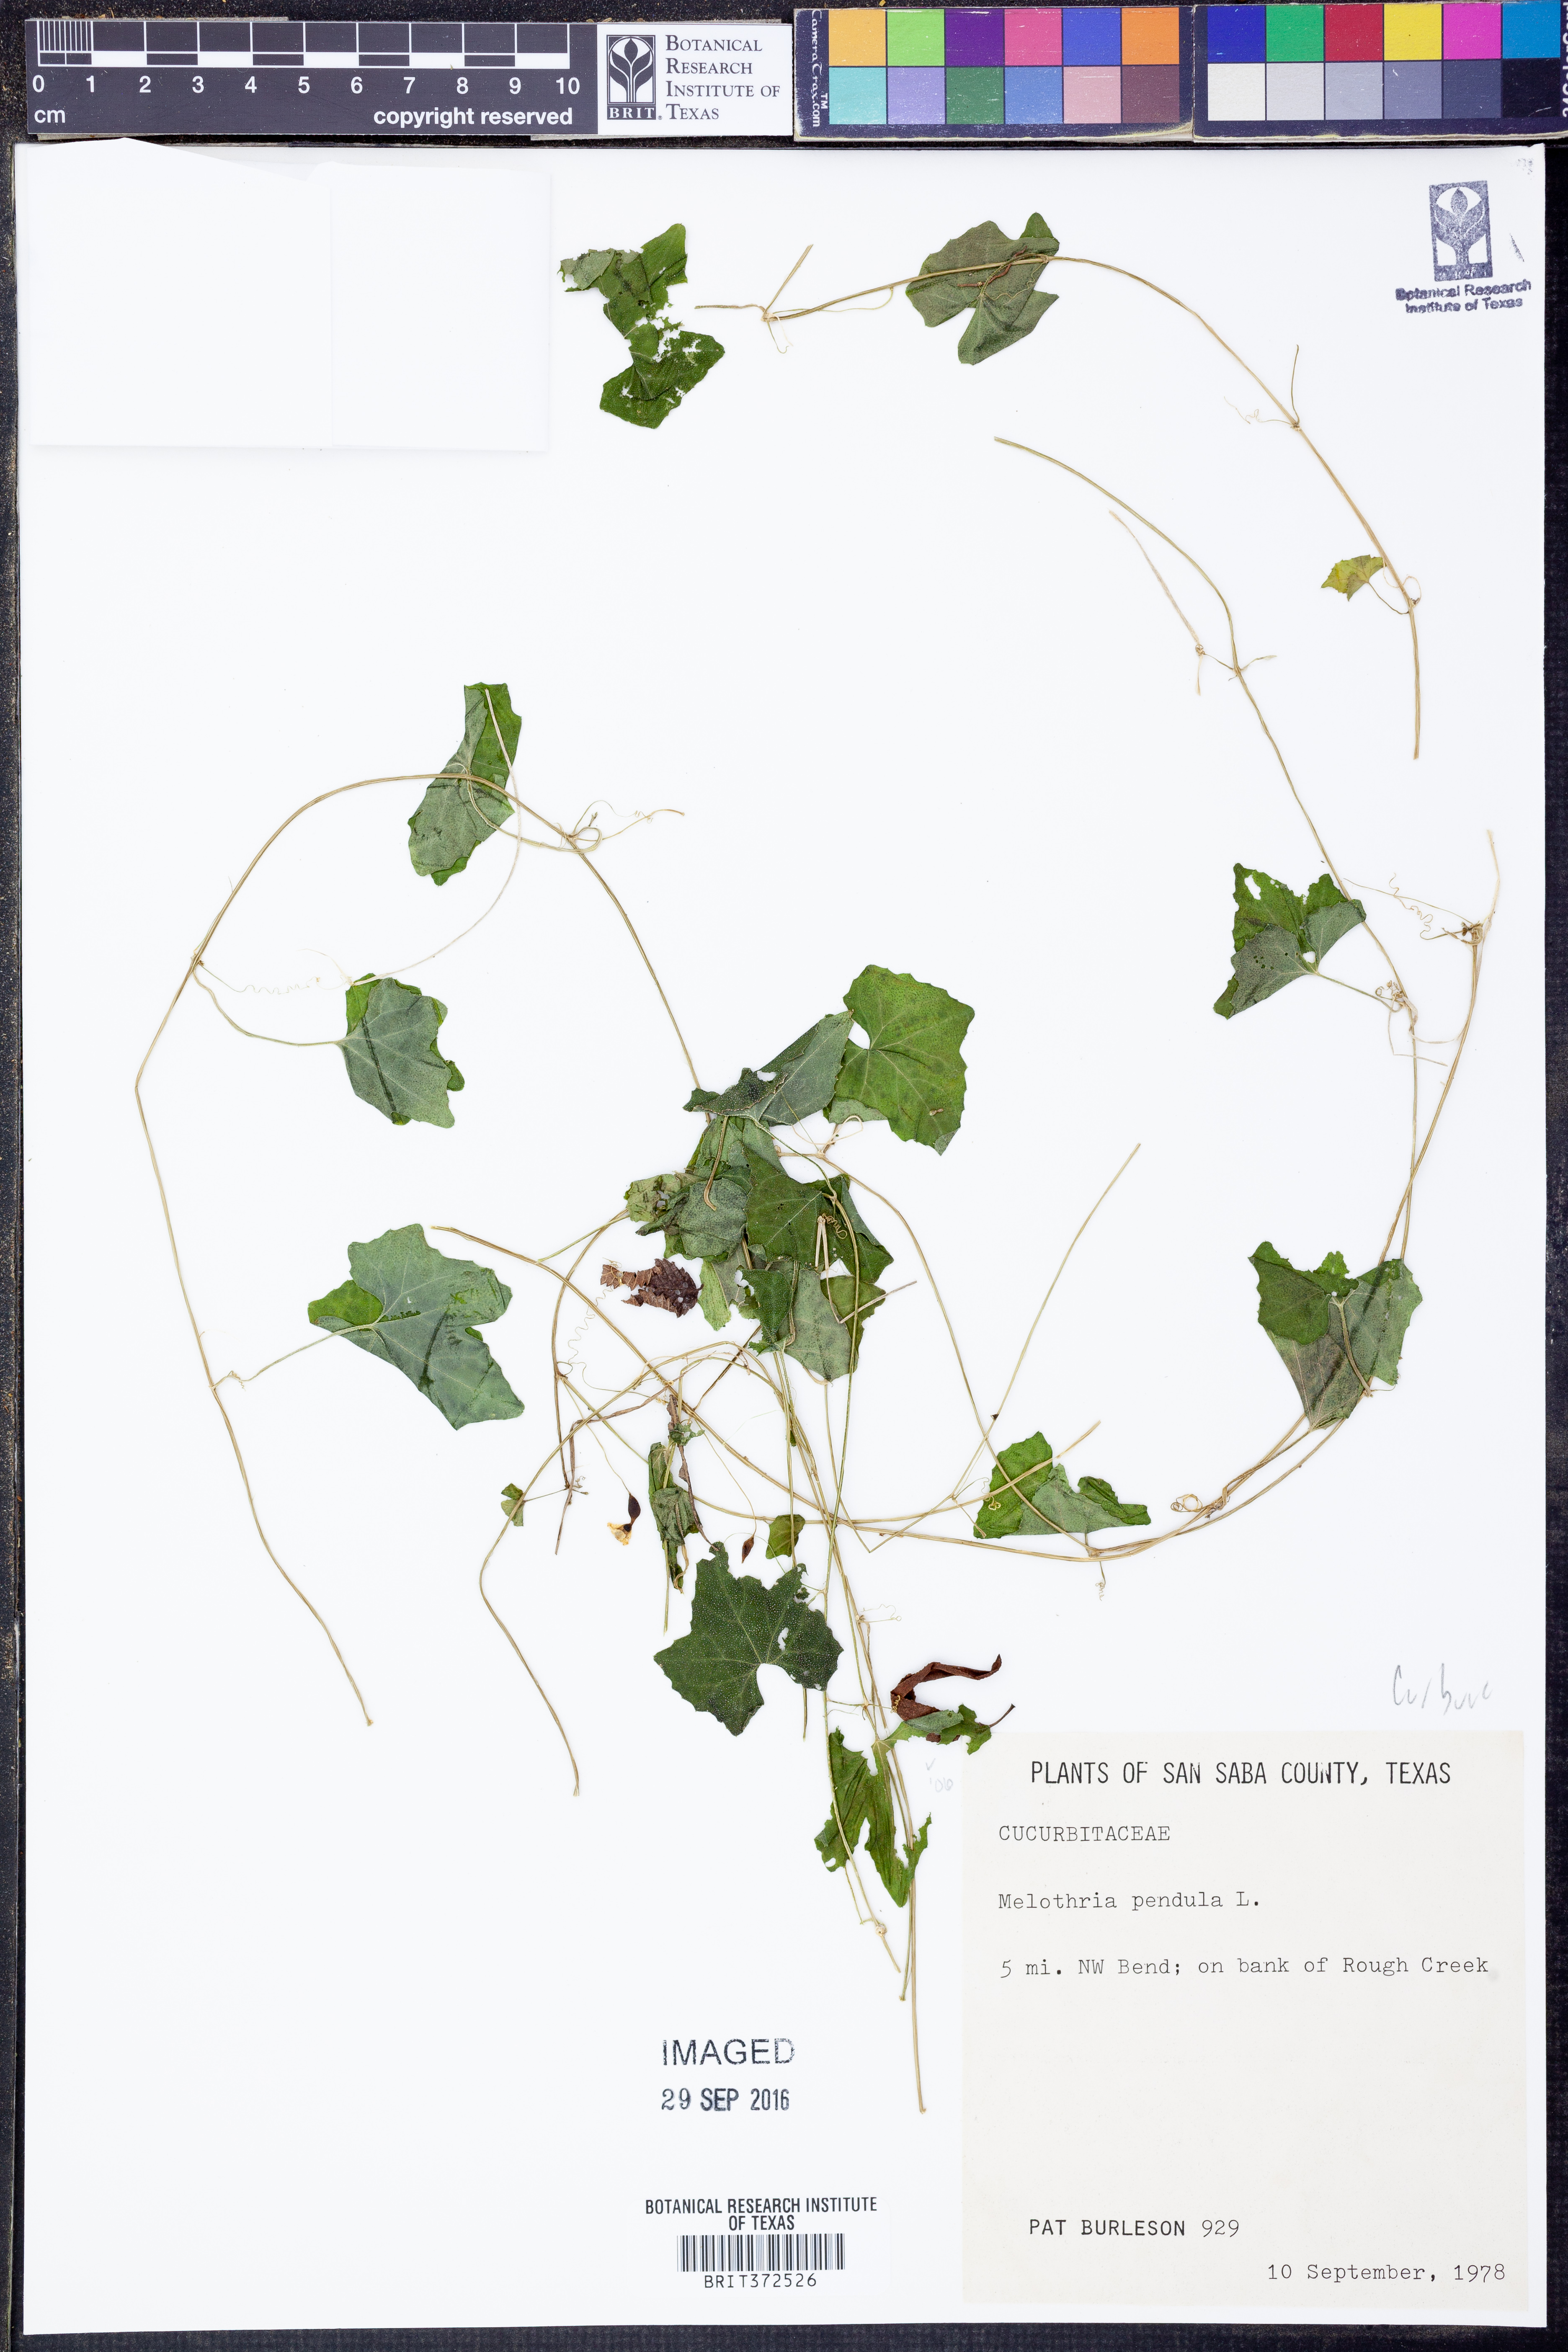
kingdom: Plantae
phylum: Tracheophyta
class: Magnoliopsida
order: Cucurbitales
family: Cucurbitaceae
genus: Melothria
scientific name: Melothria pendula
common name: Creeping-cucumber
